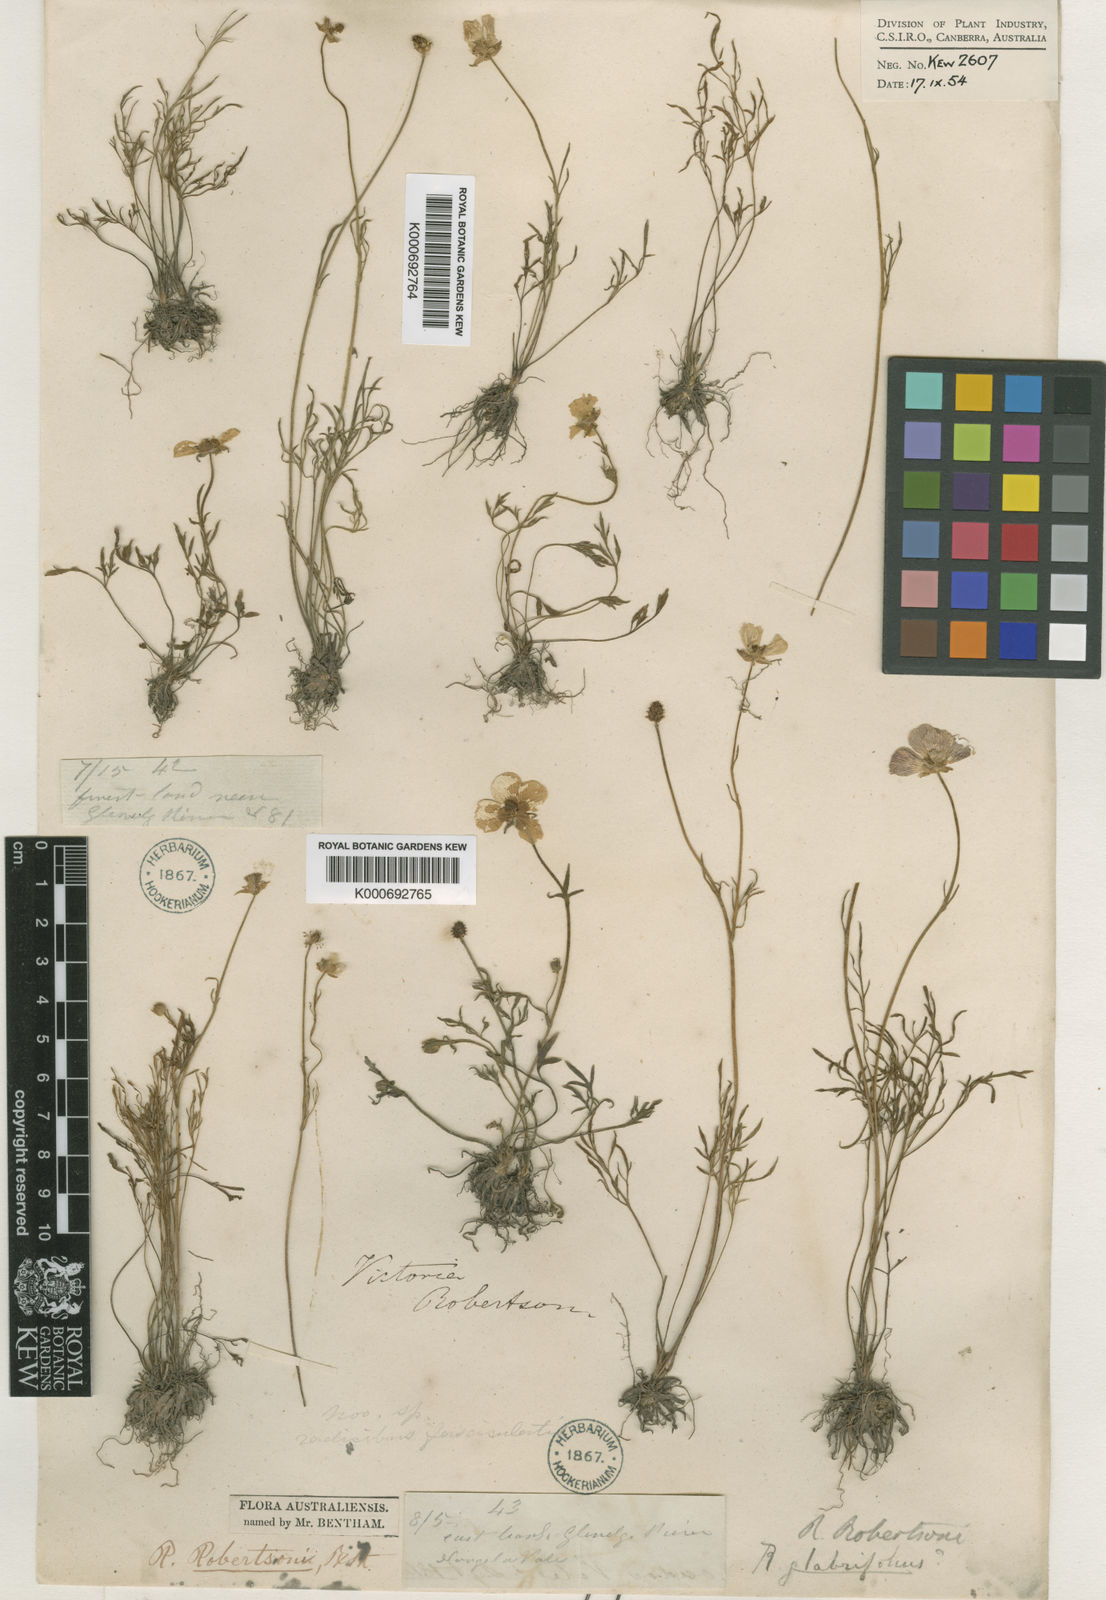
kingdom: Plantae
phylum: Tracheophyta
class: Magnoliopsida
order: Ranunculales
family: Ranunculaceae
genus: Ranunculus
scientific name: Ranunculus robertsonii
